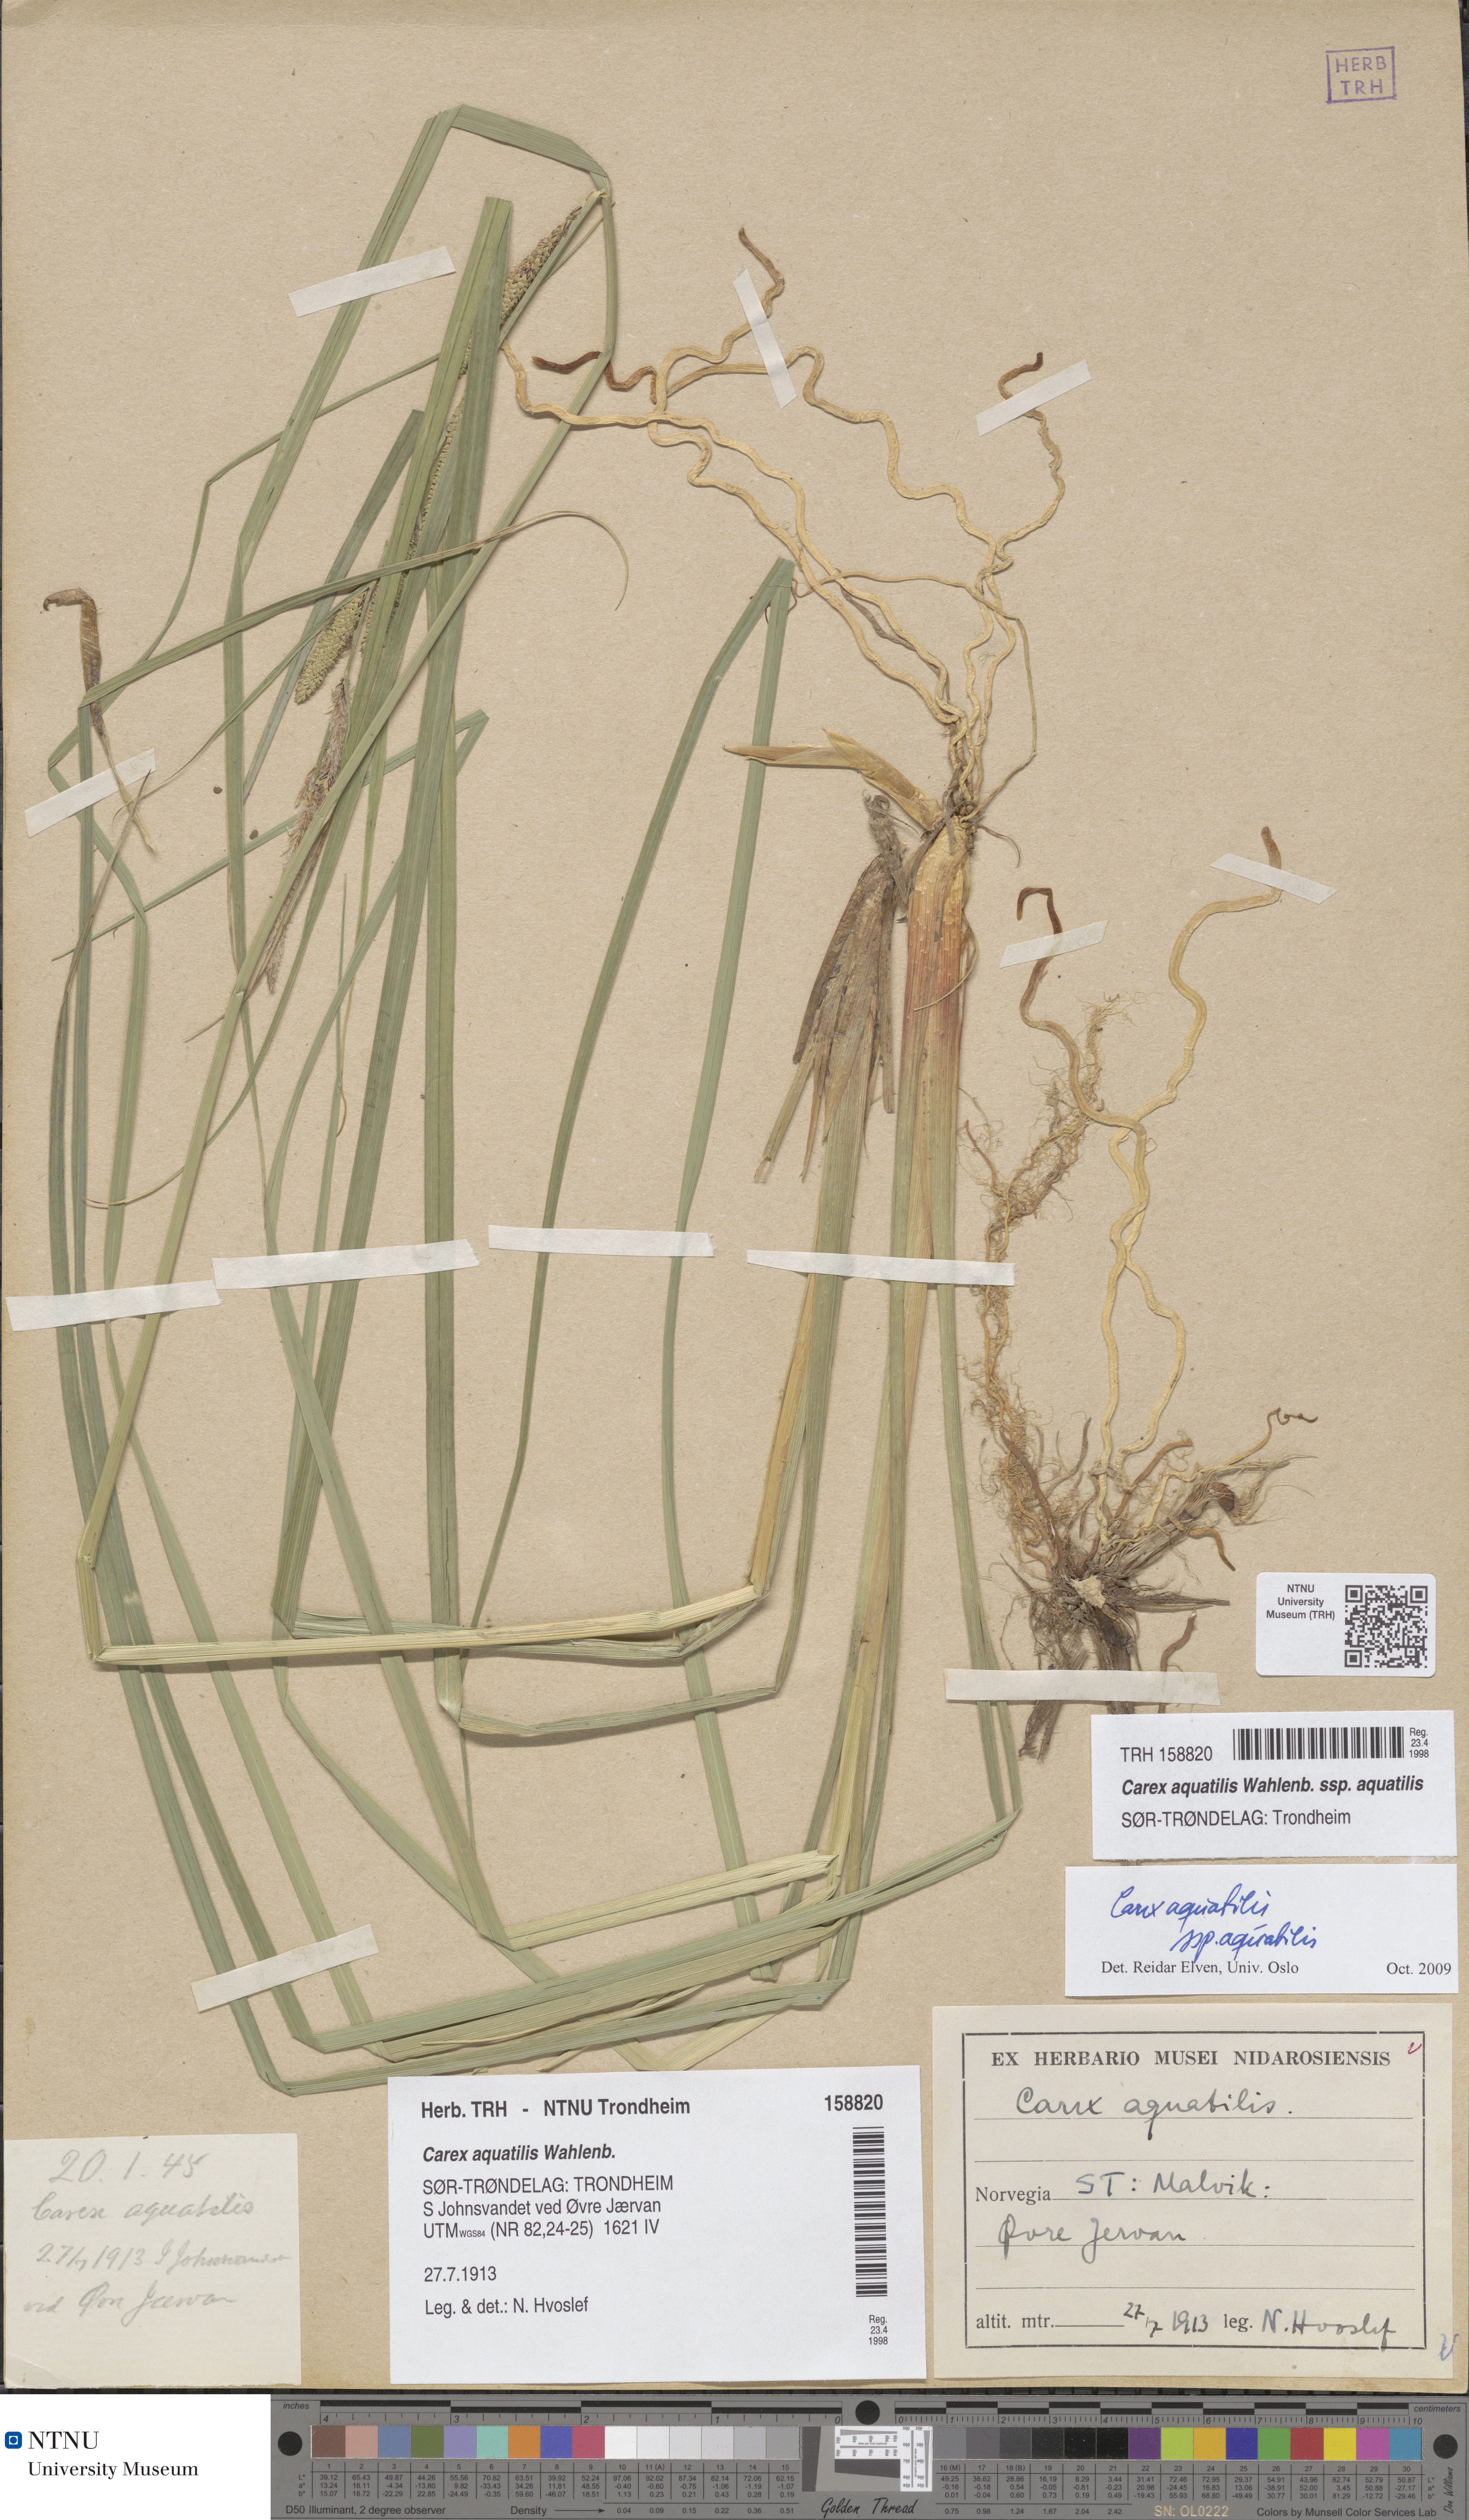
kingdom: Plantae
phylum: Tracheophyta
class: Liliopsida
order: Poales
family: Cyperaceae
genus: Carex
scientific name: Carex aquatilis
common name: Water sedge
